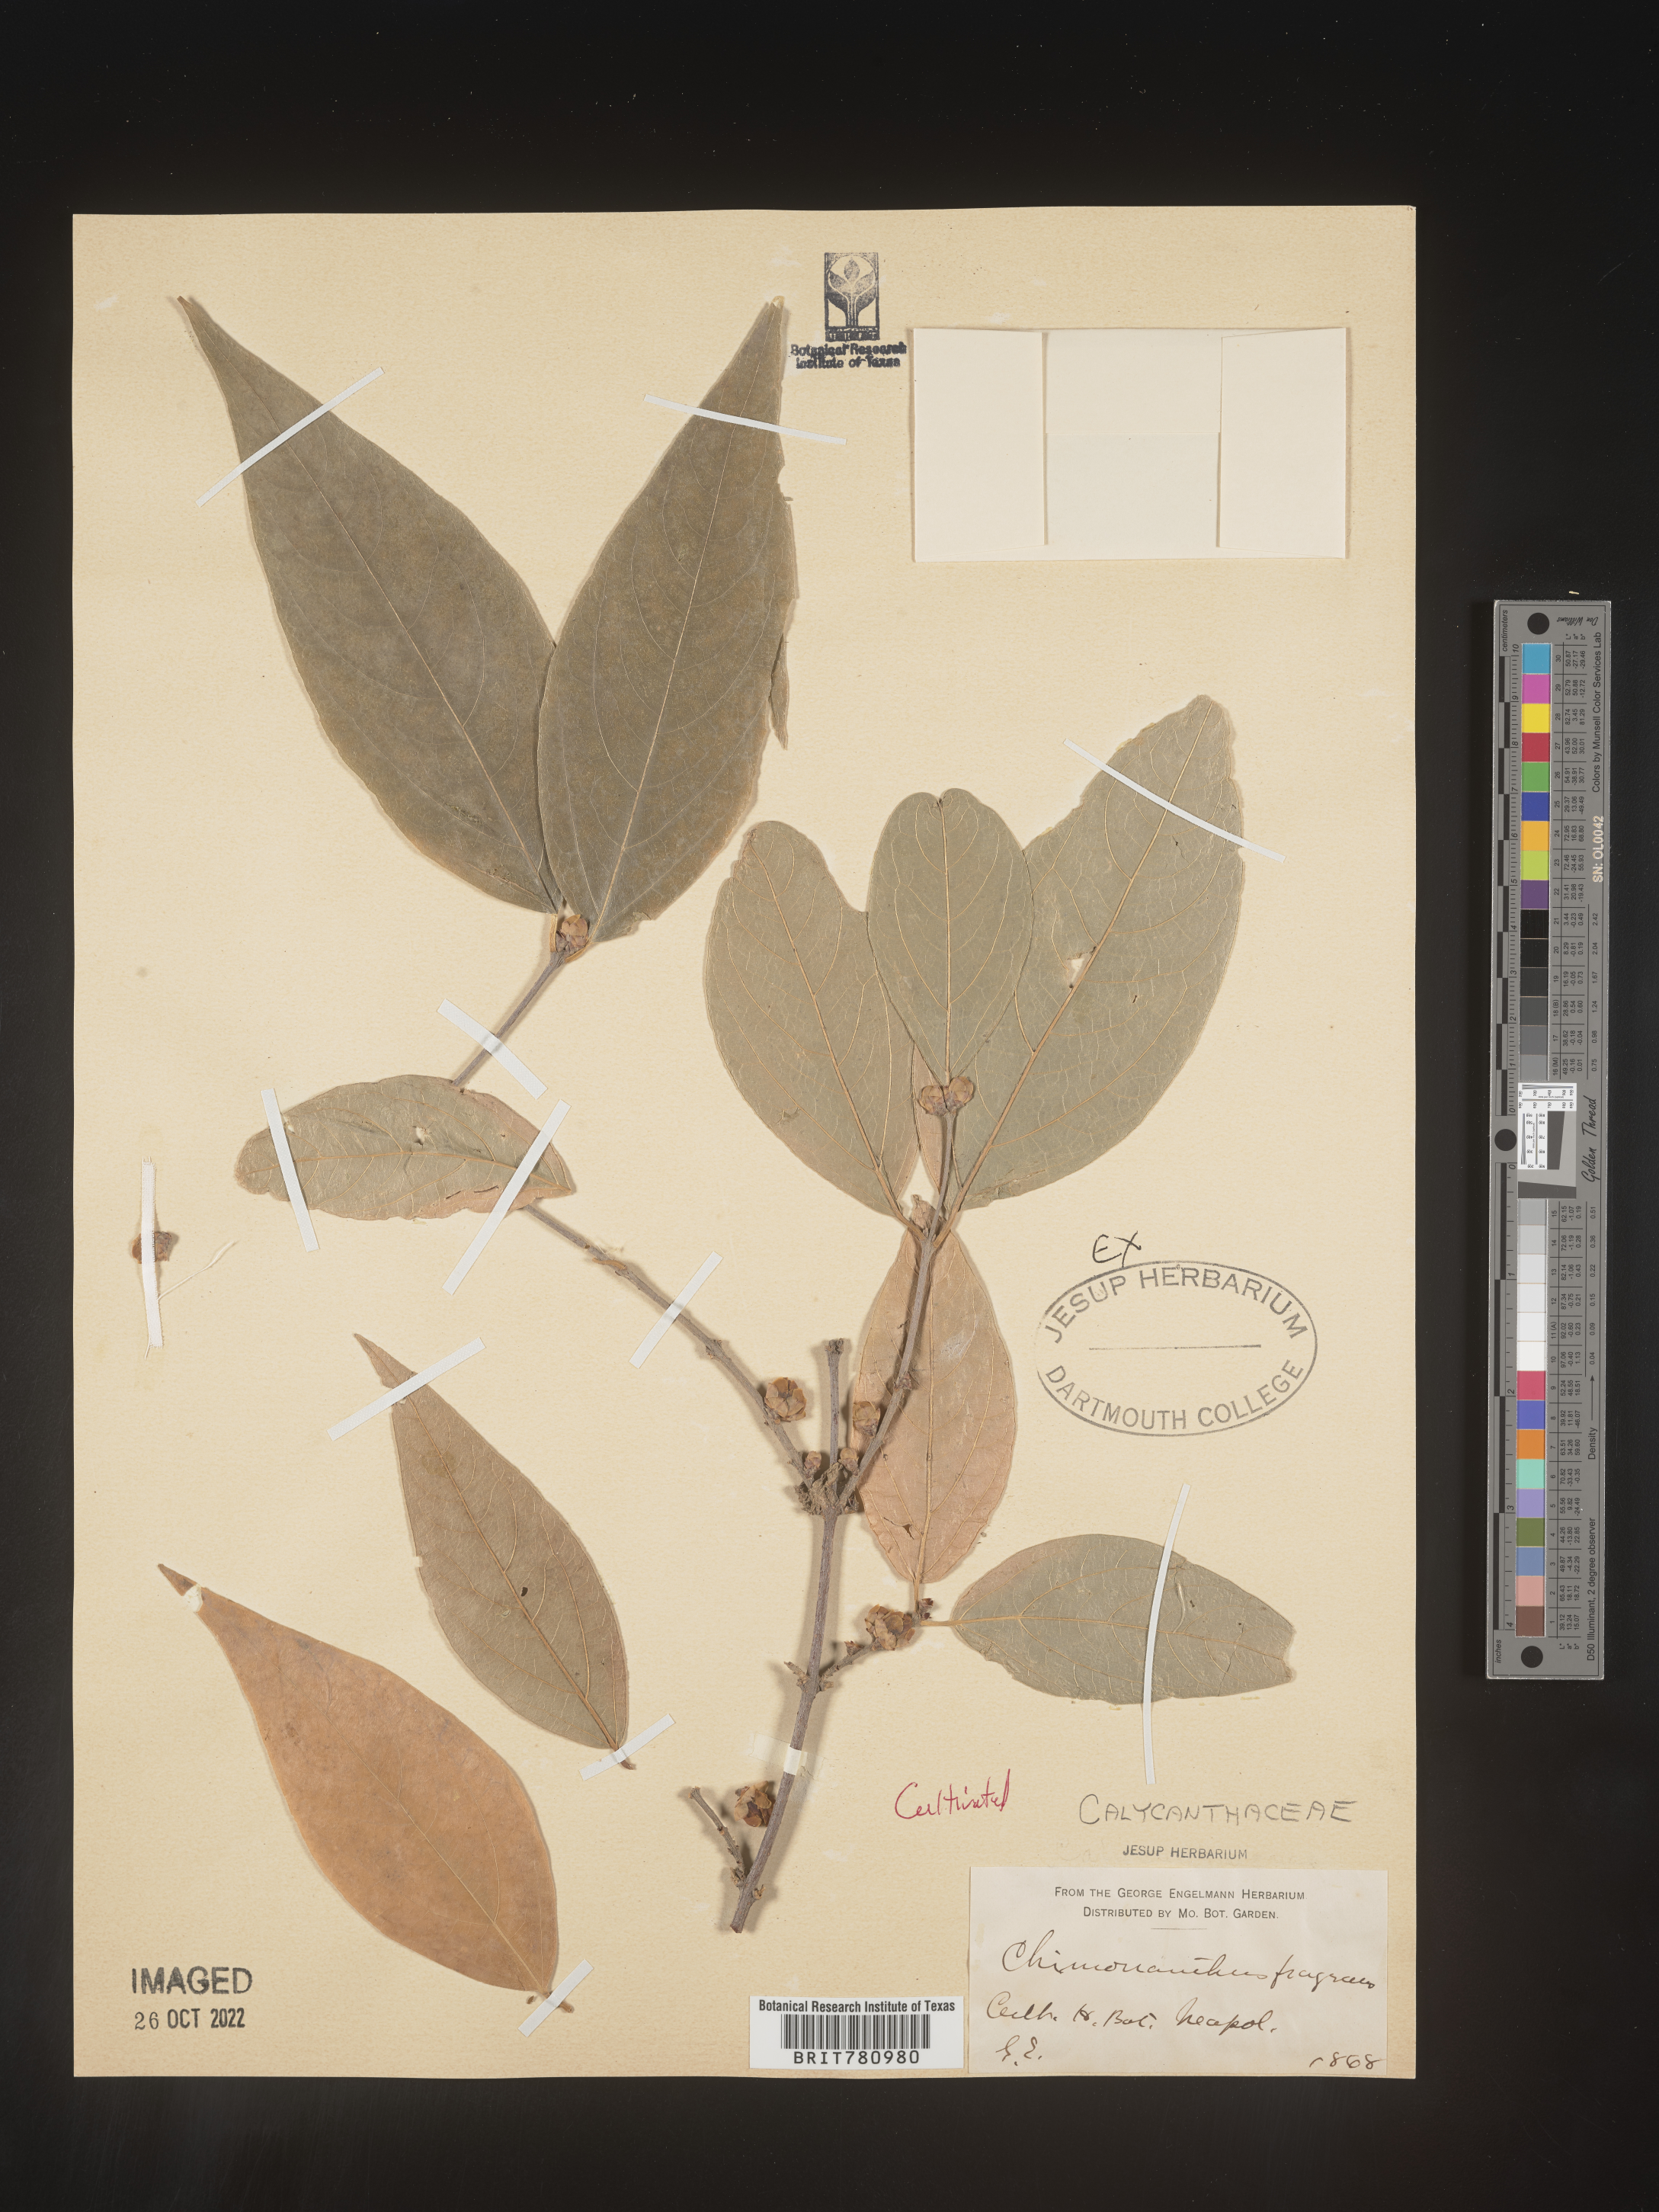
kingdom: Plantae
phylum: Tracheophyta
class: Magnoliopsida
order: Laurales
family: Calycanthaceae
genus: Chimonanthus
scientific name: Chimonanthus
